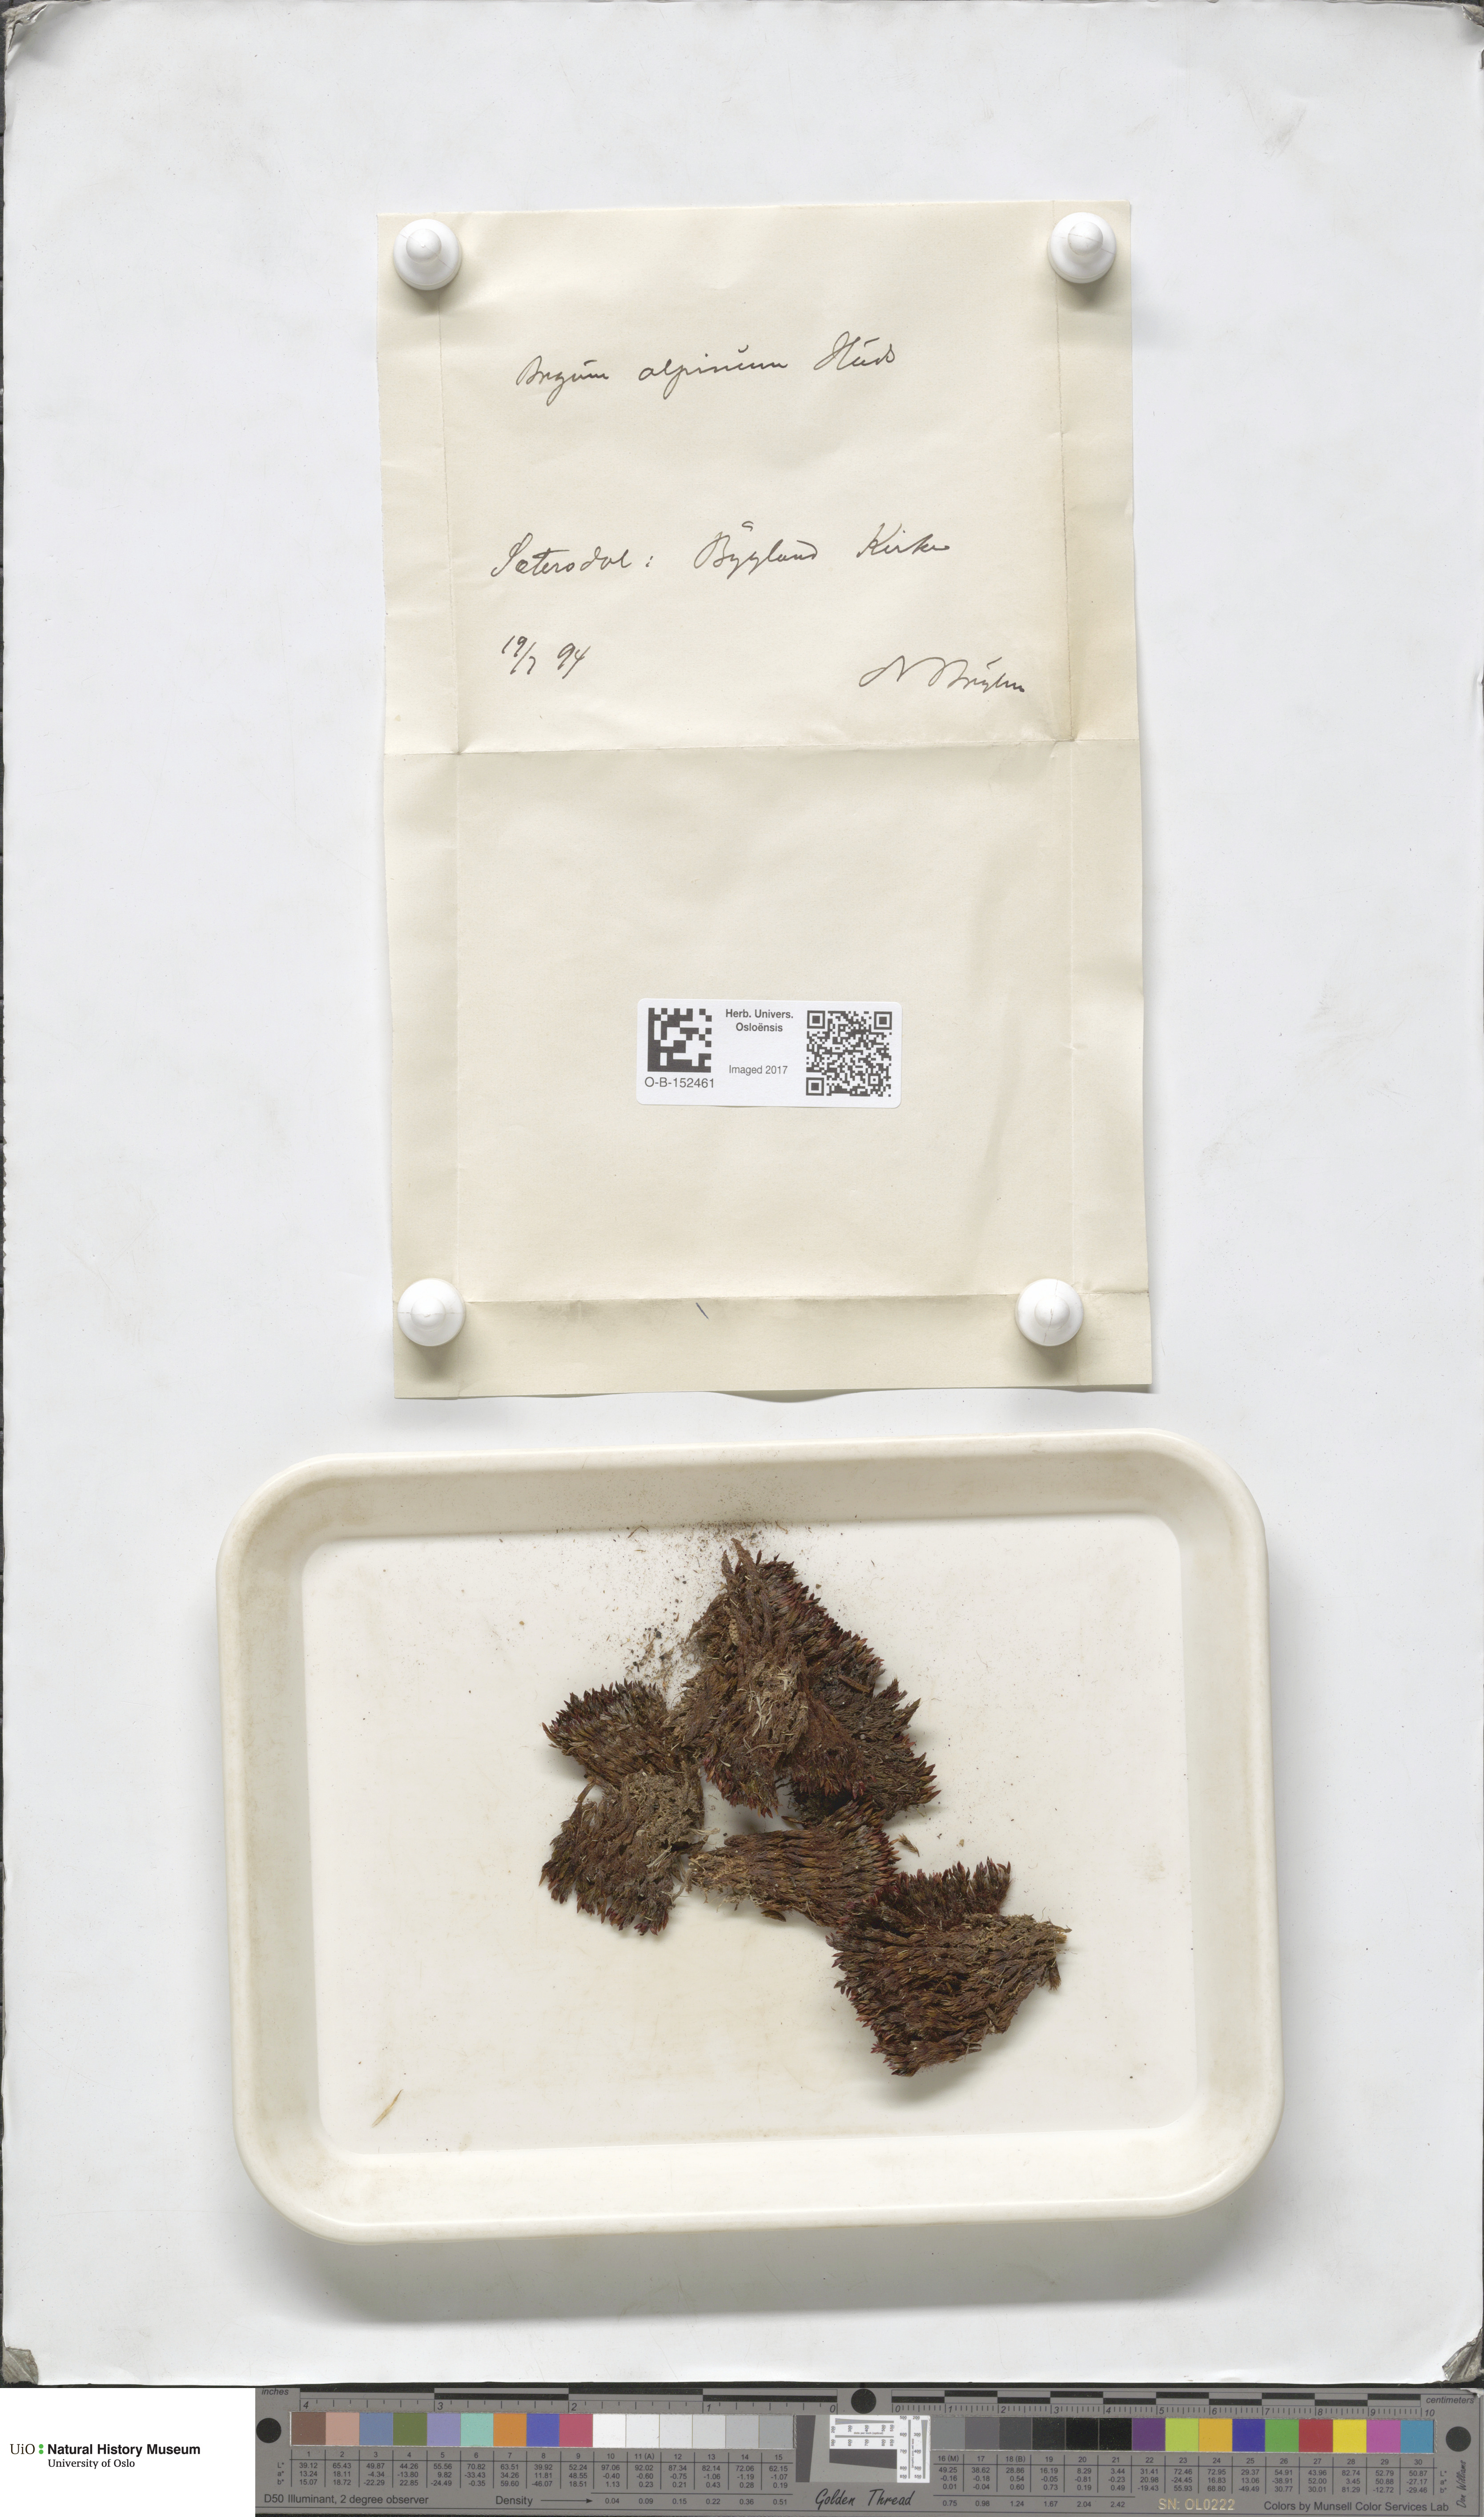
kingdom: Plantae
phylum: Bryophyta
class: Bryopsida
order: Bryales
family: Bryaceae
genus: Imbribryum
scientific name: Imbribryum alpinum
